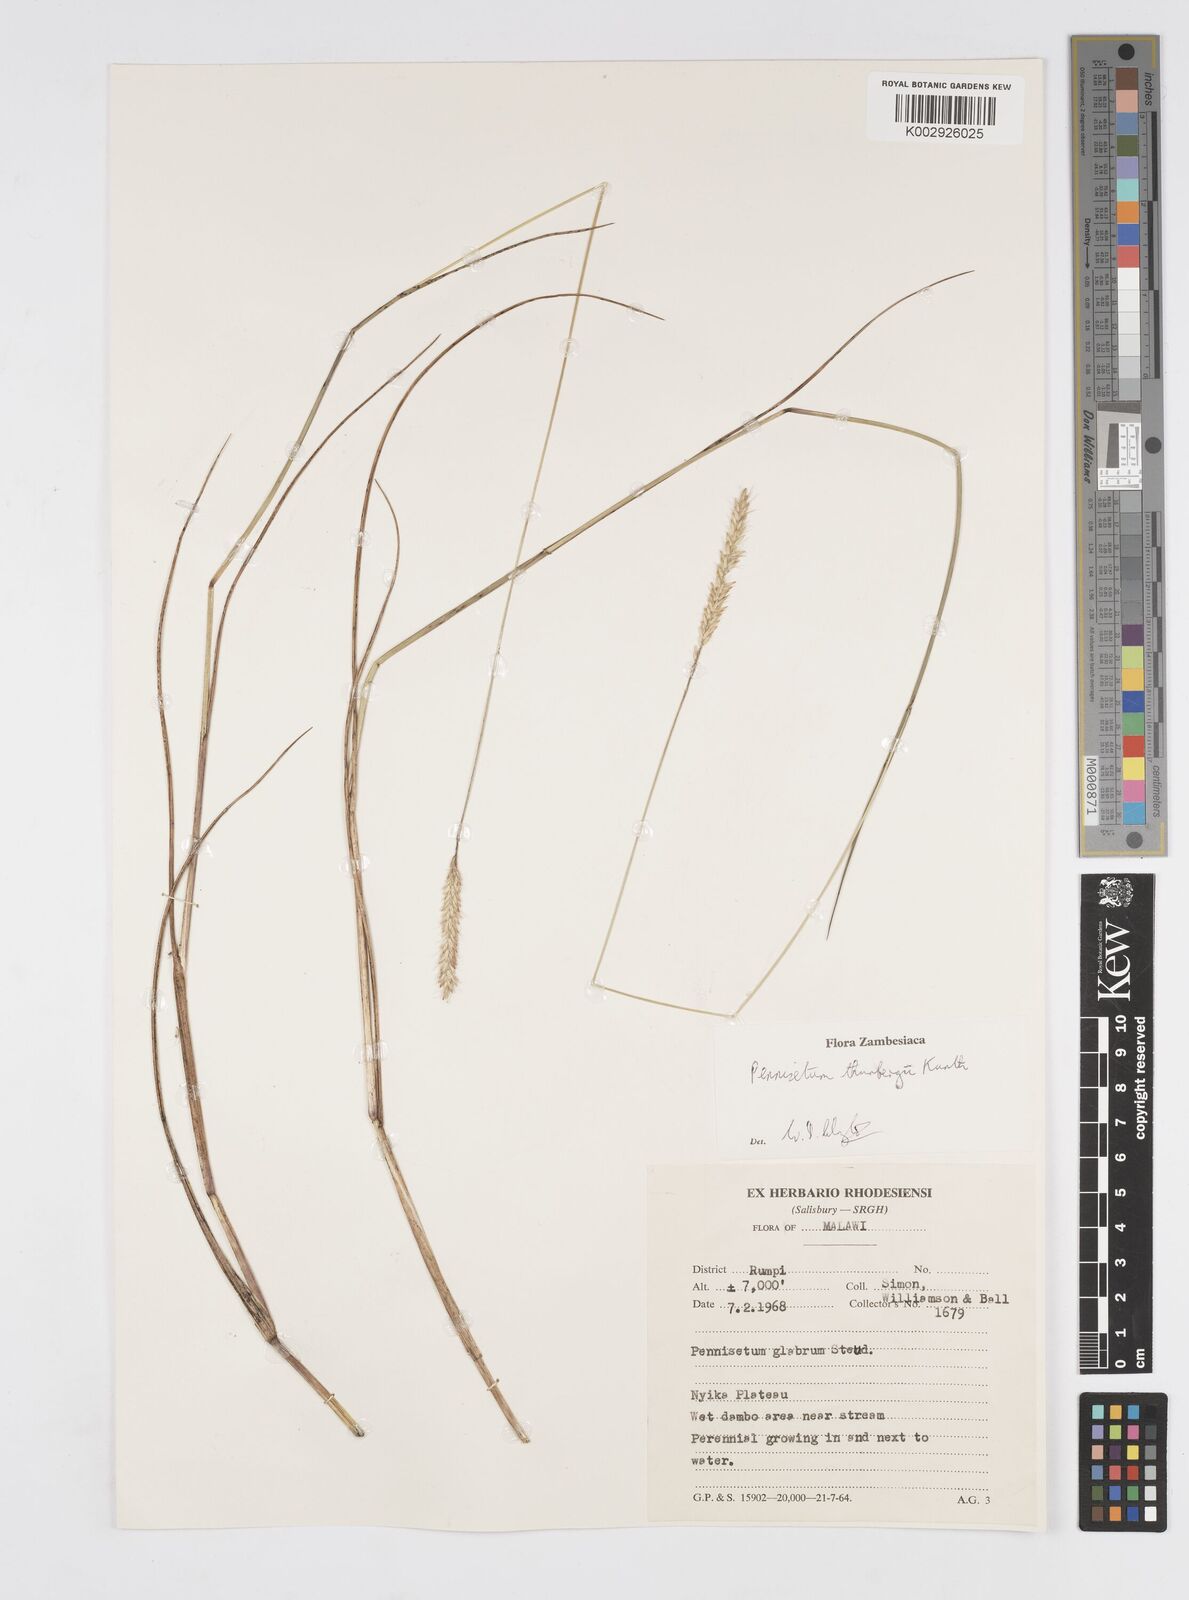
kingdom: Plantae
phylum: Tracheophyta
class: Liliopsida
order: Poales
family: Poaceae
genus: Cenchrus
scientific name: Cenchrus geniculatus
